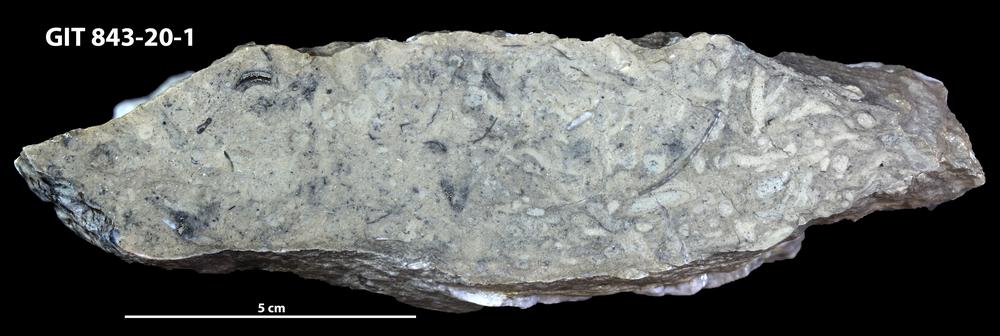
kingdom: Animalia
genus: Chondrites
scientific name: Chondrites
